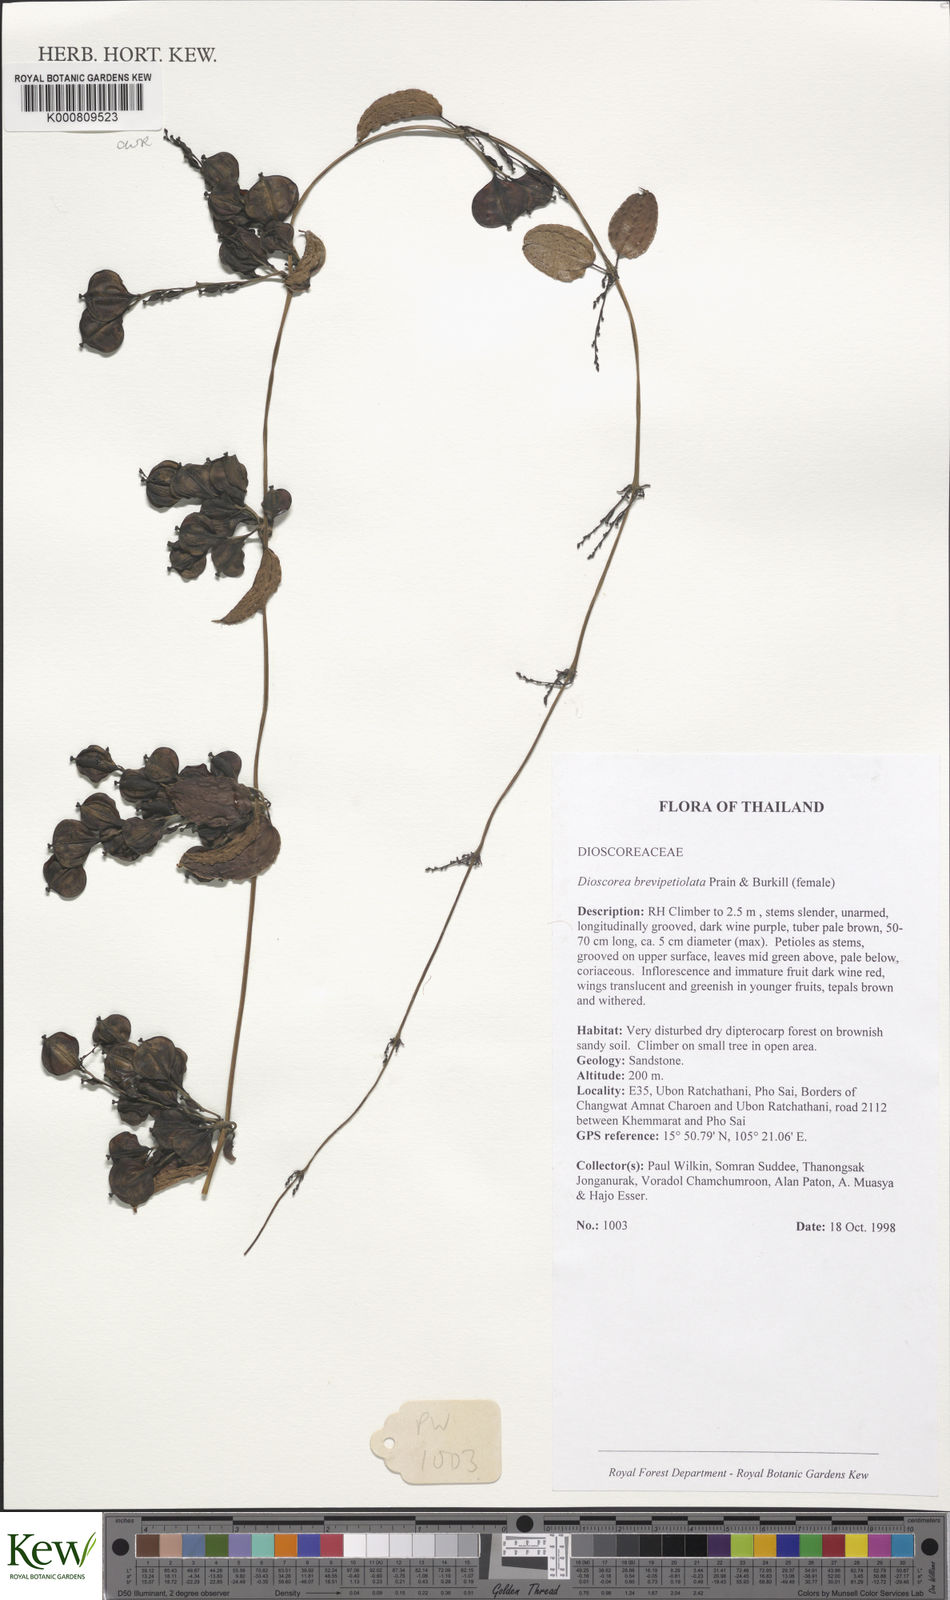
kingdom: Plantae
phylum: Tracheophyta
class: Liliopsida
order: Dioscoreales
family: Dioscoreaceae
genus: Dioscorea
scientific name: Dioscorea brevipetiolata
